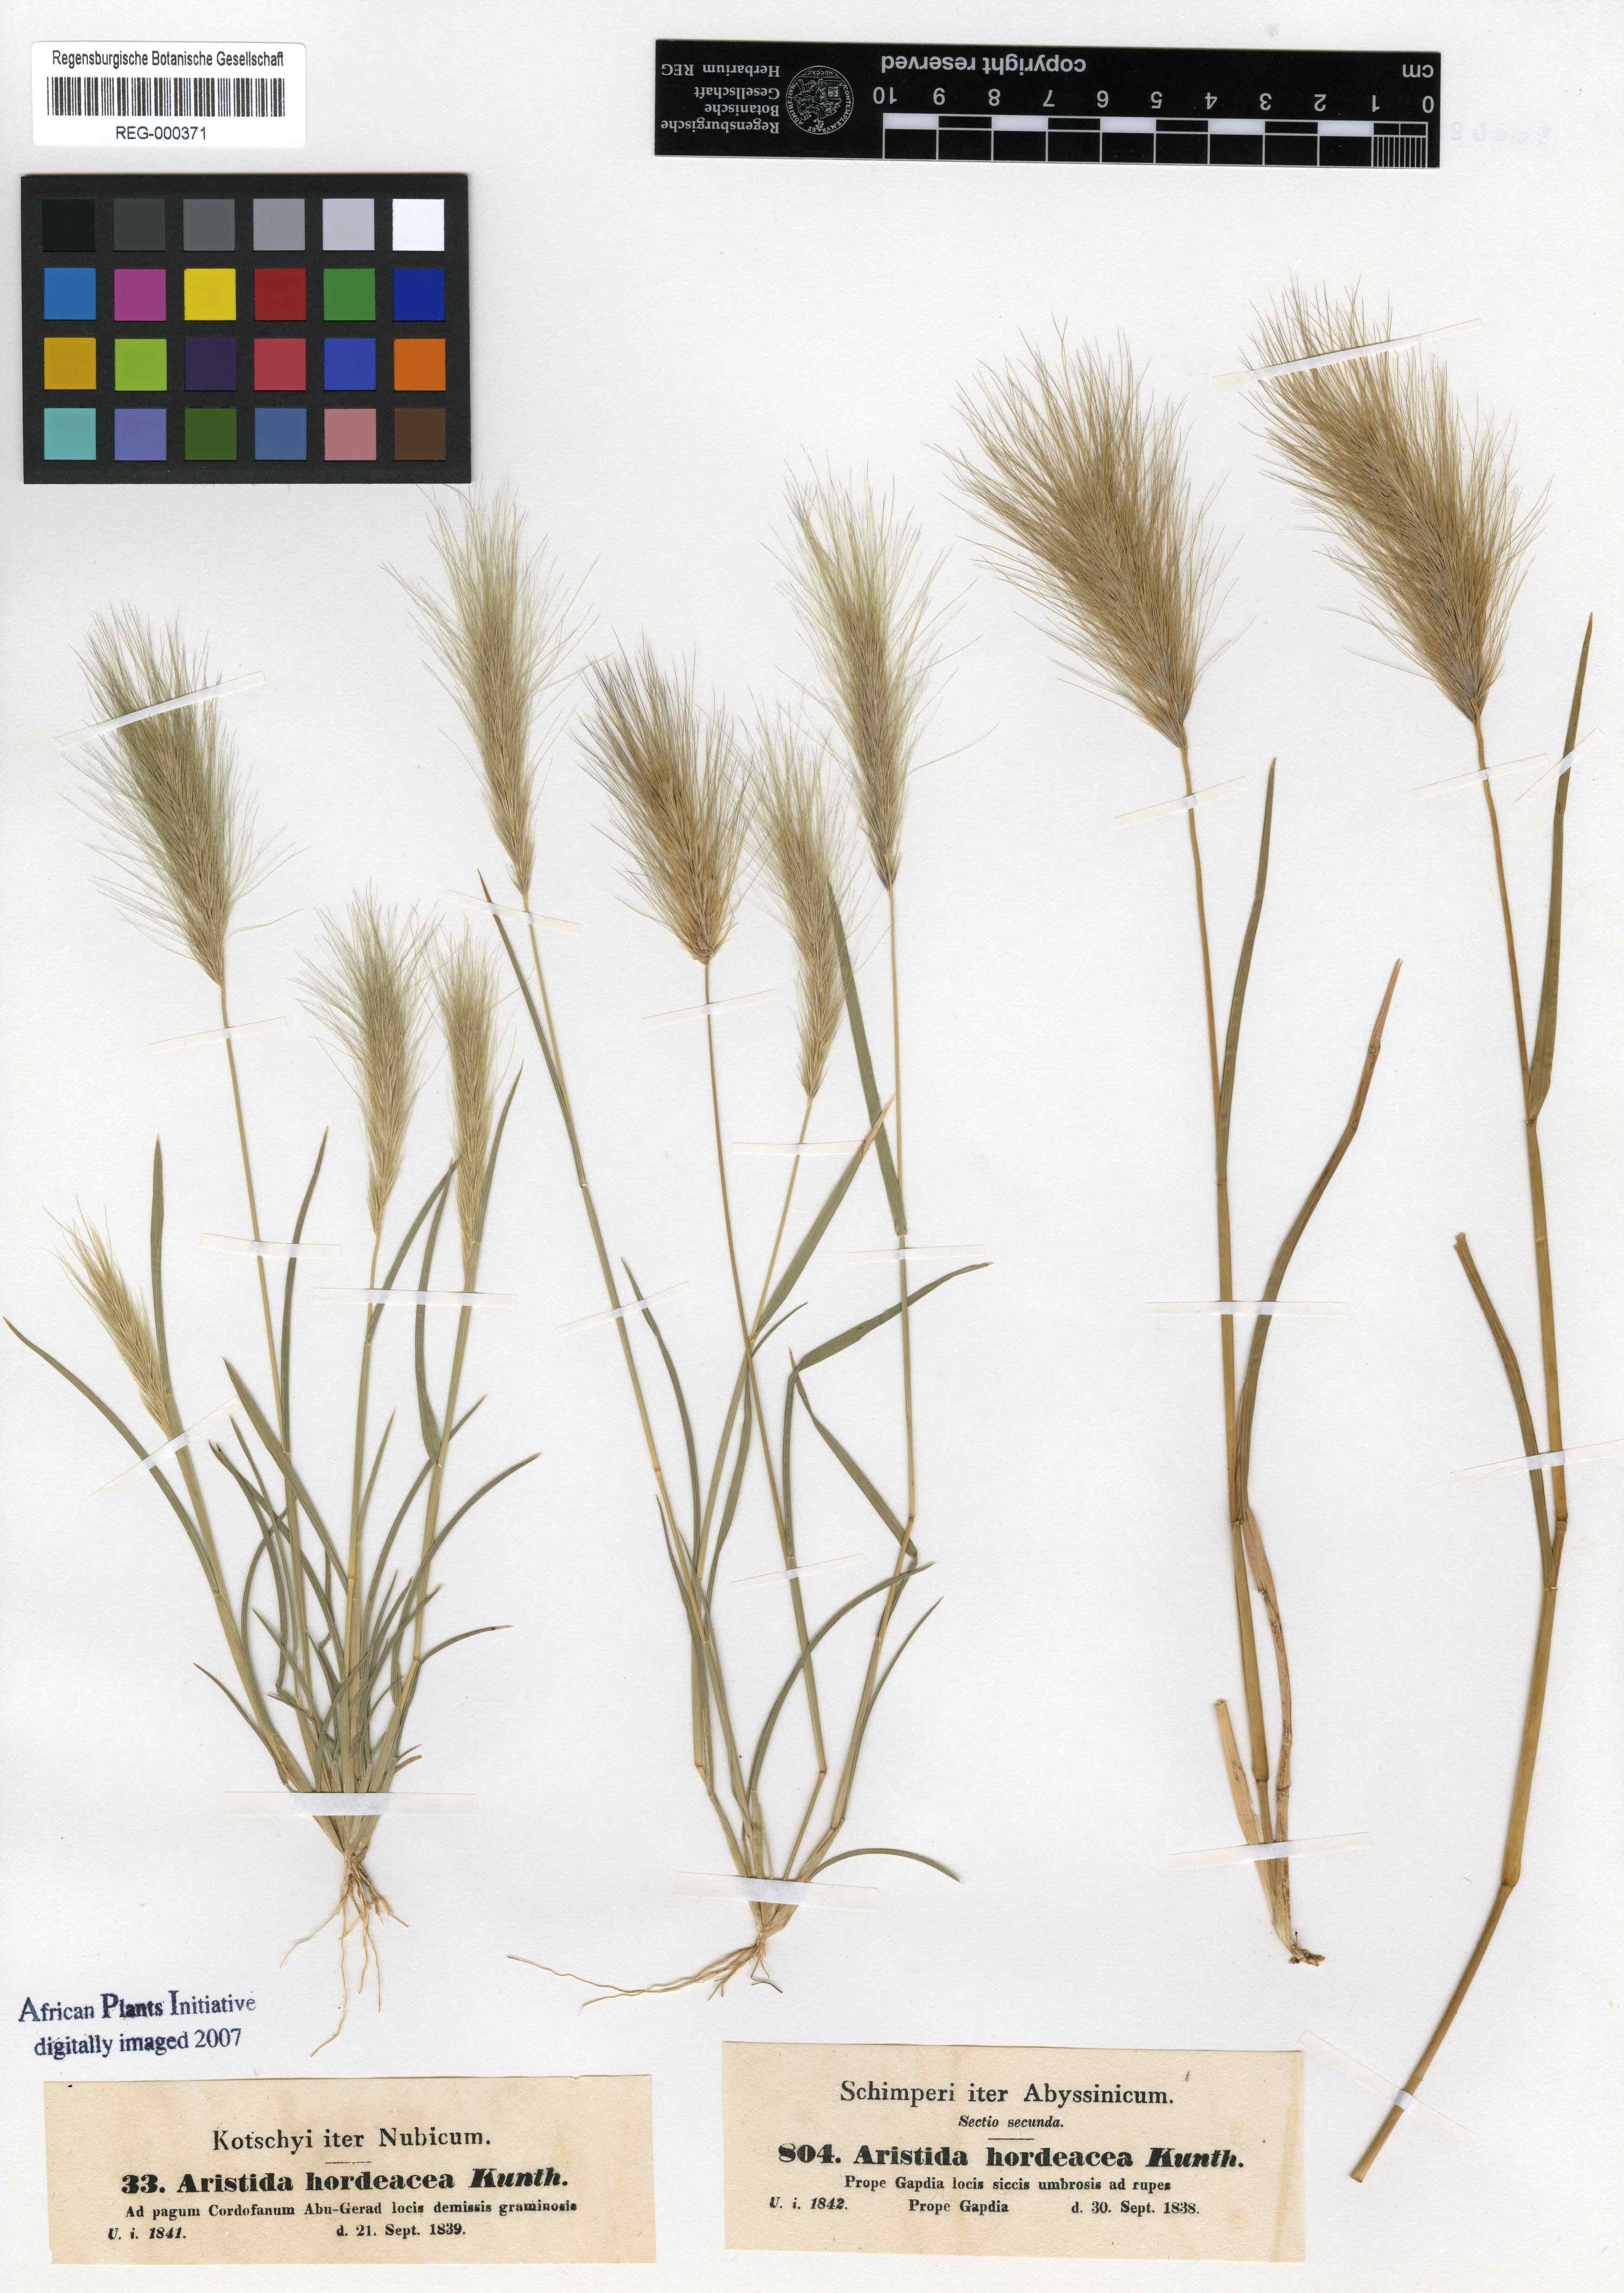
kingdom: Plantae
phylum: Tracheophyta
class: Liliopsida
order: Poales
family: Poaceae
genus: Aristida
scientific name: Aristida hordeacea
